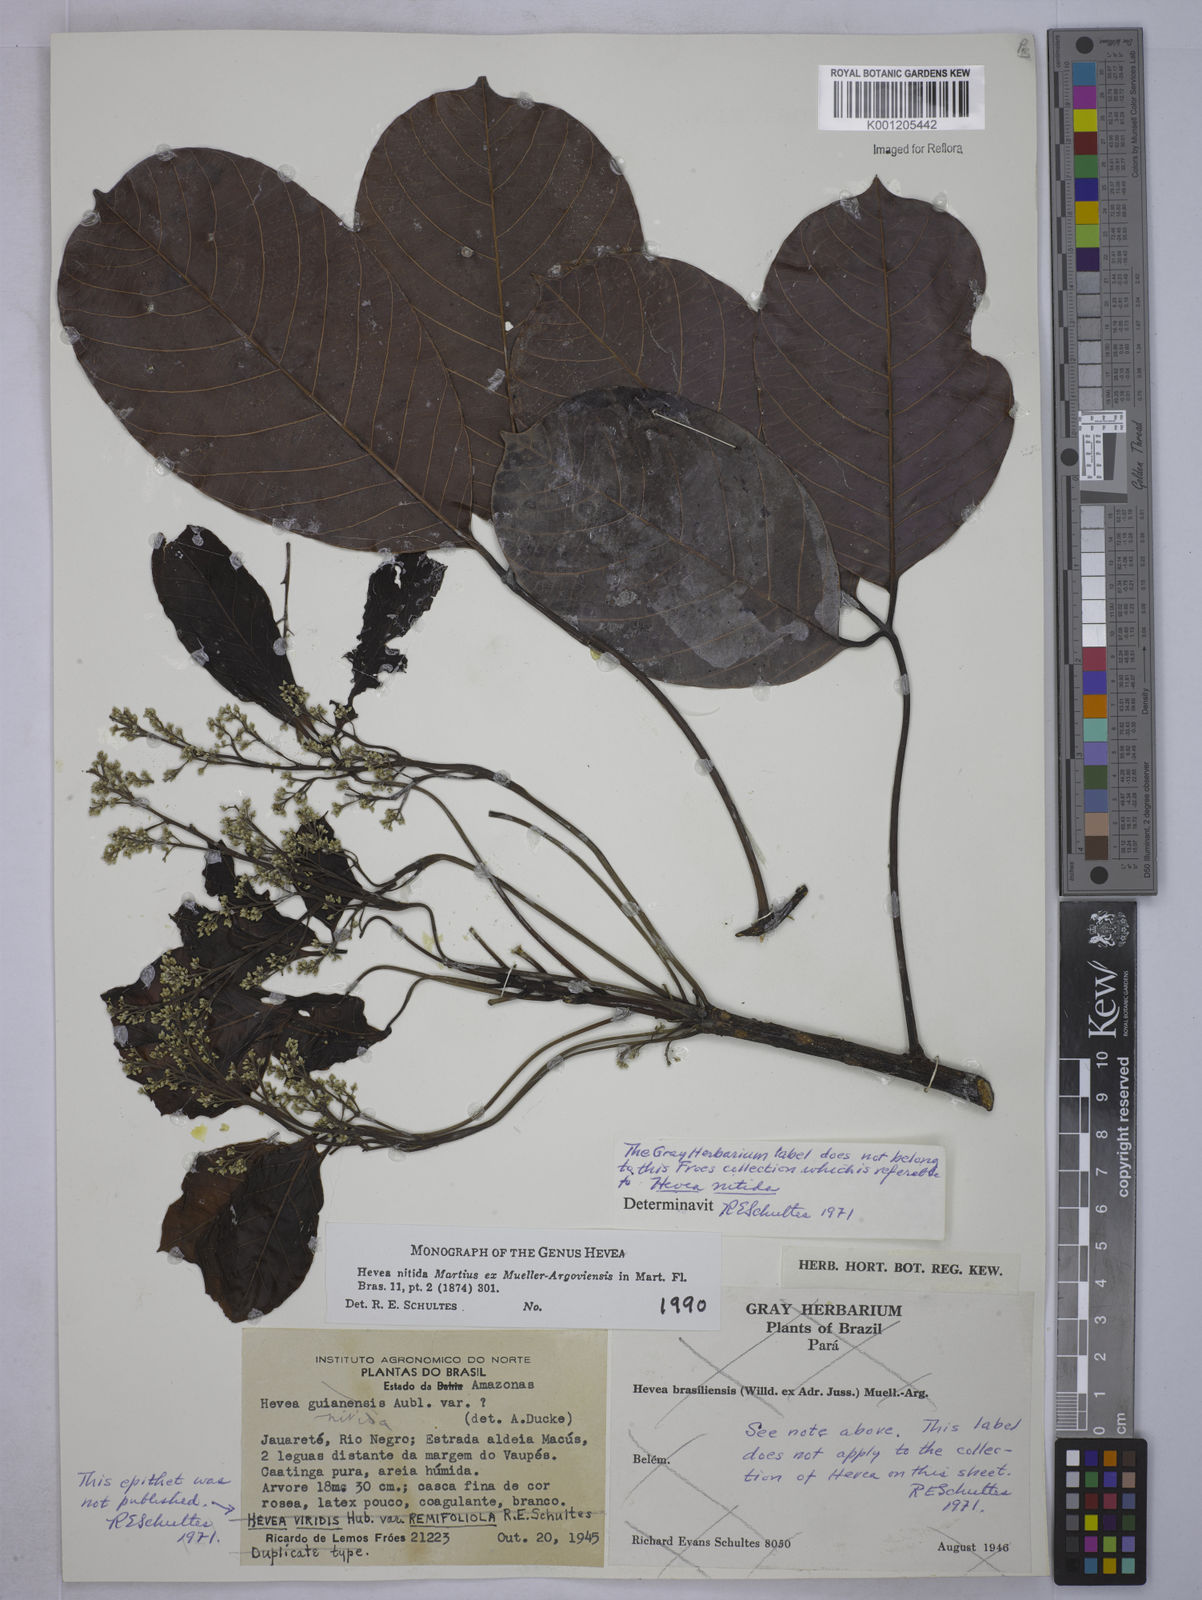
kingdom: Plantae
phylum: Tracheophyta
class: Magnoliopsida
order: Malpighiales
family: Euphorbiaceae
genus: Hevea
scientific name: Hevea
